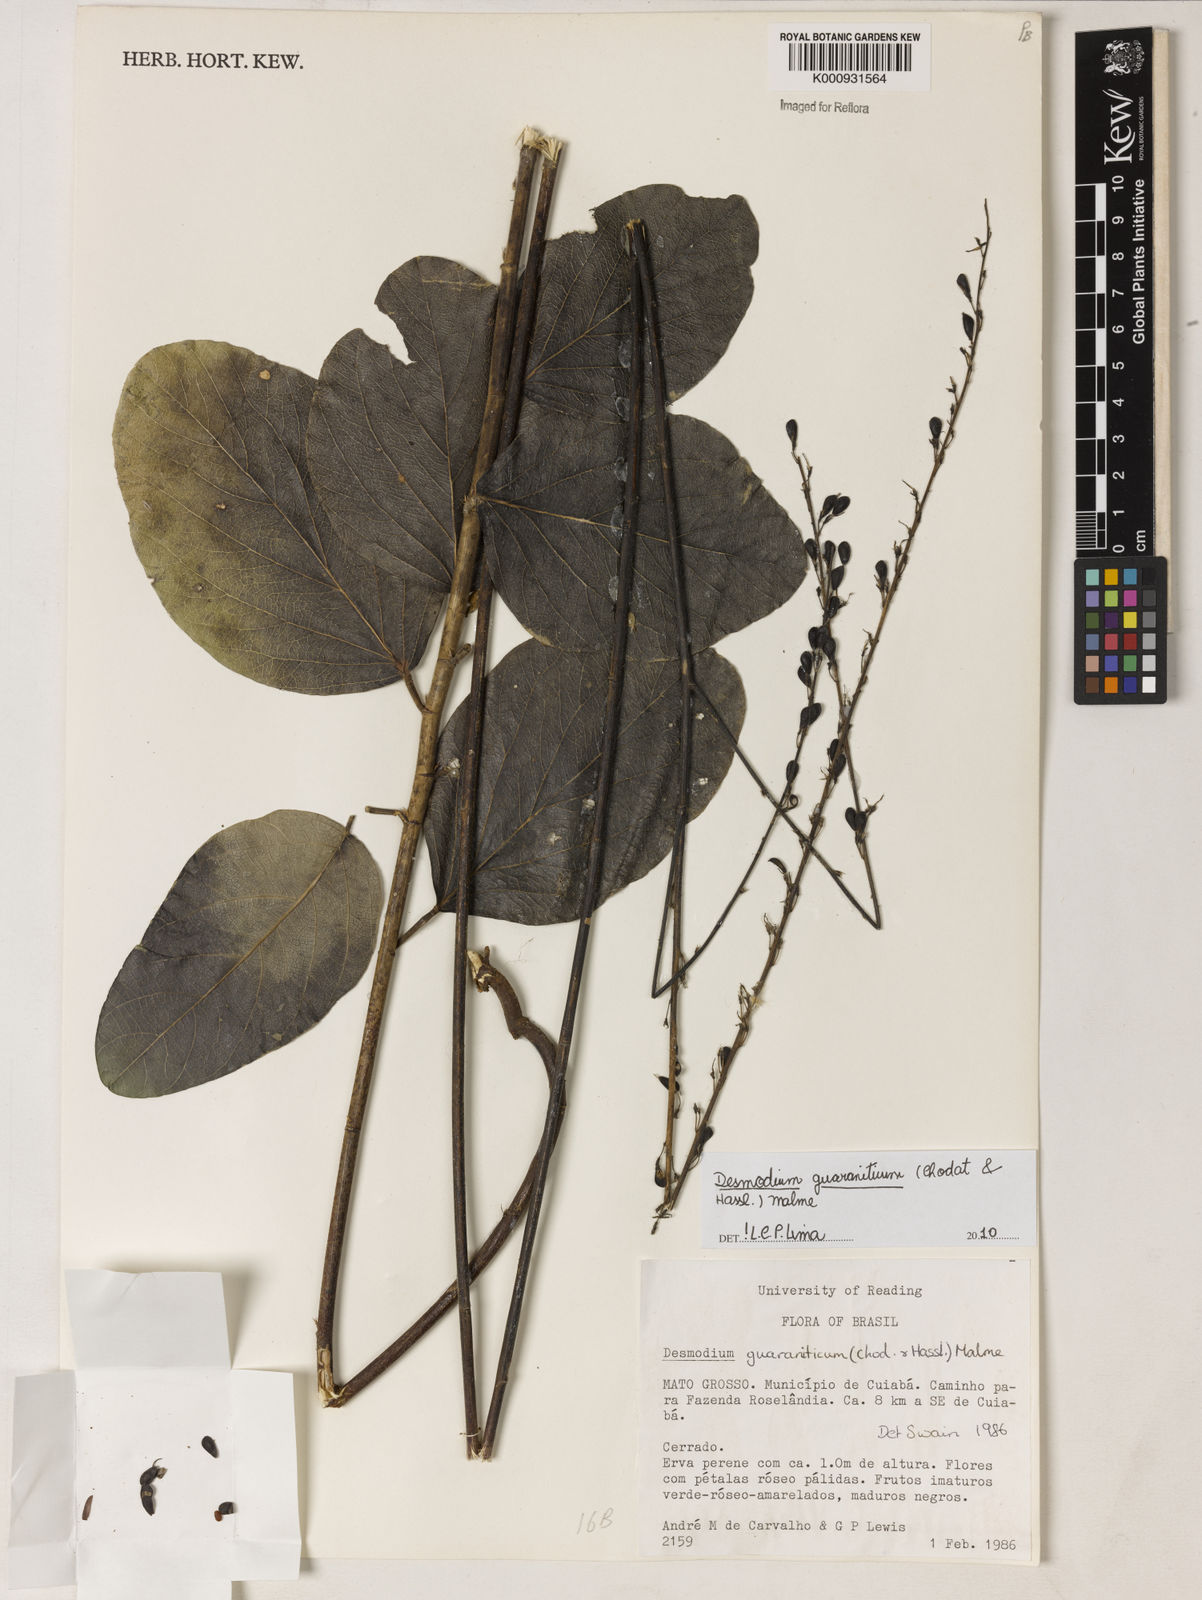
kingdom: Plantae
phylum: Tracheophyta
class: Magnoliopsida
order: Fabales
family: Fabaceae
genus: Desmodium
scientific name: Desmodium guaraniticum
